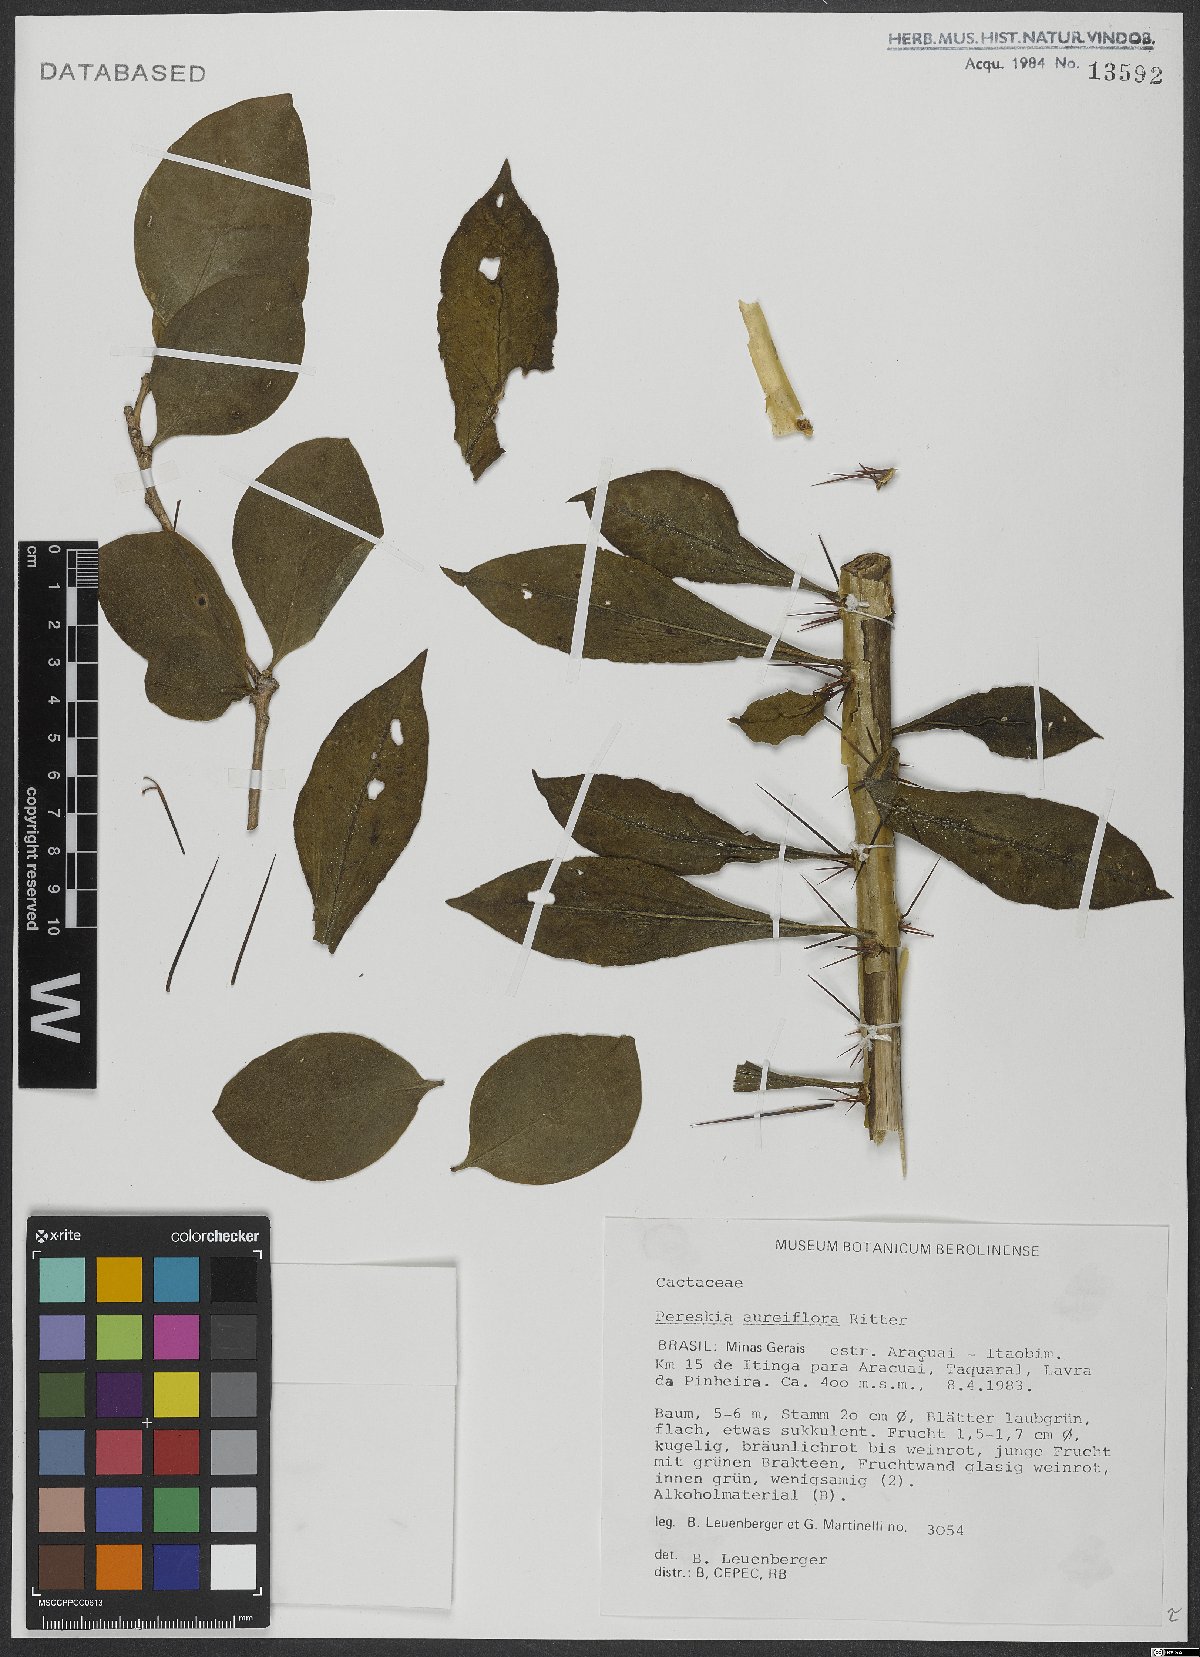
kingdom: Plantae
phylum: Tracheophyta
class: Magnoliopsida
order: Caryophyllales
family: Cactaceae
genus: Leuenbergeria
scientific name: Leuenbergeria aureiflora
